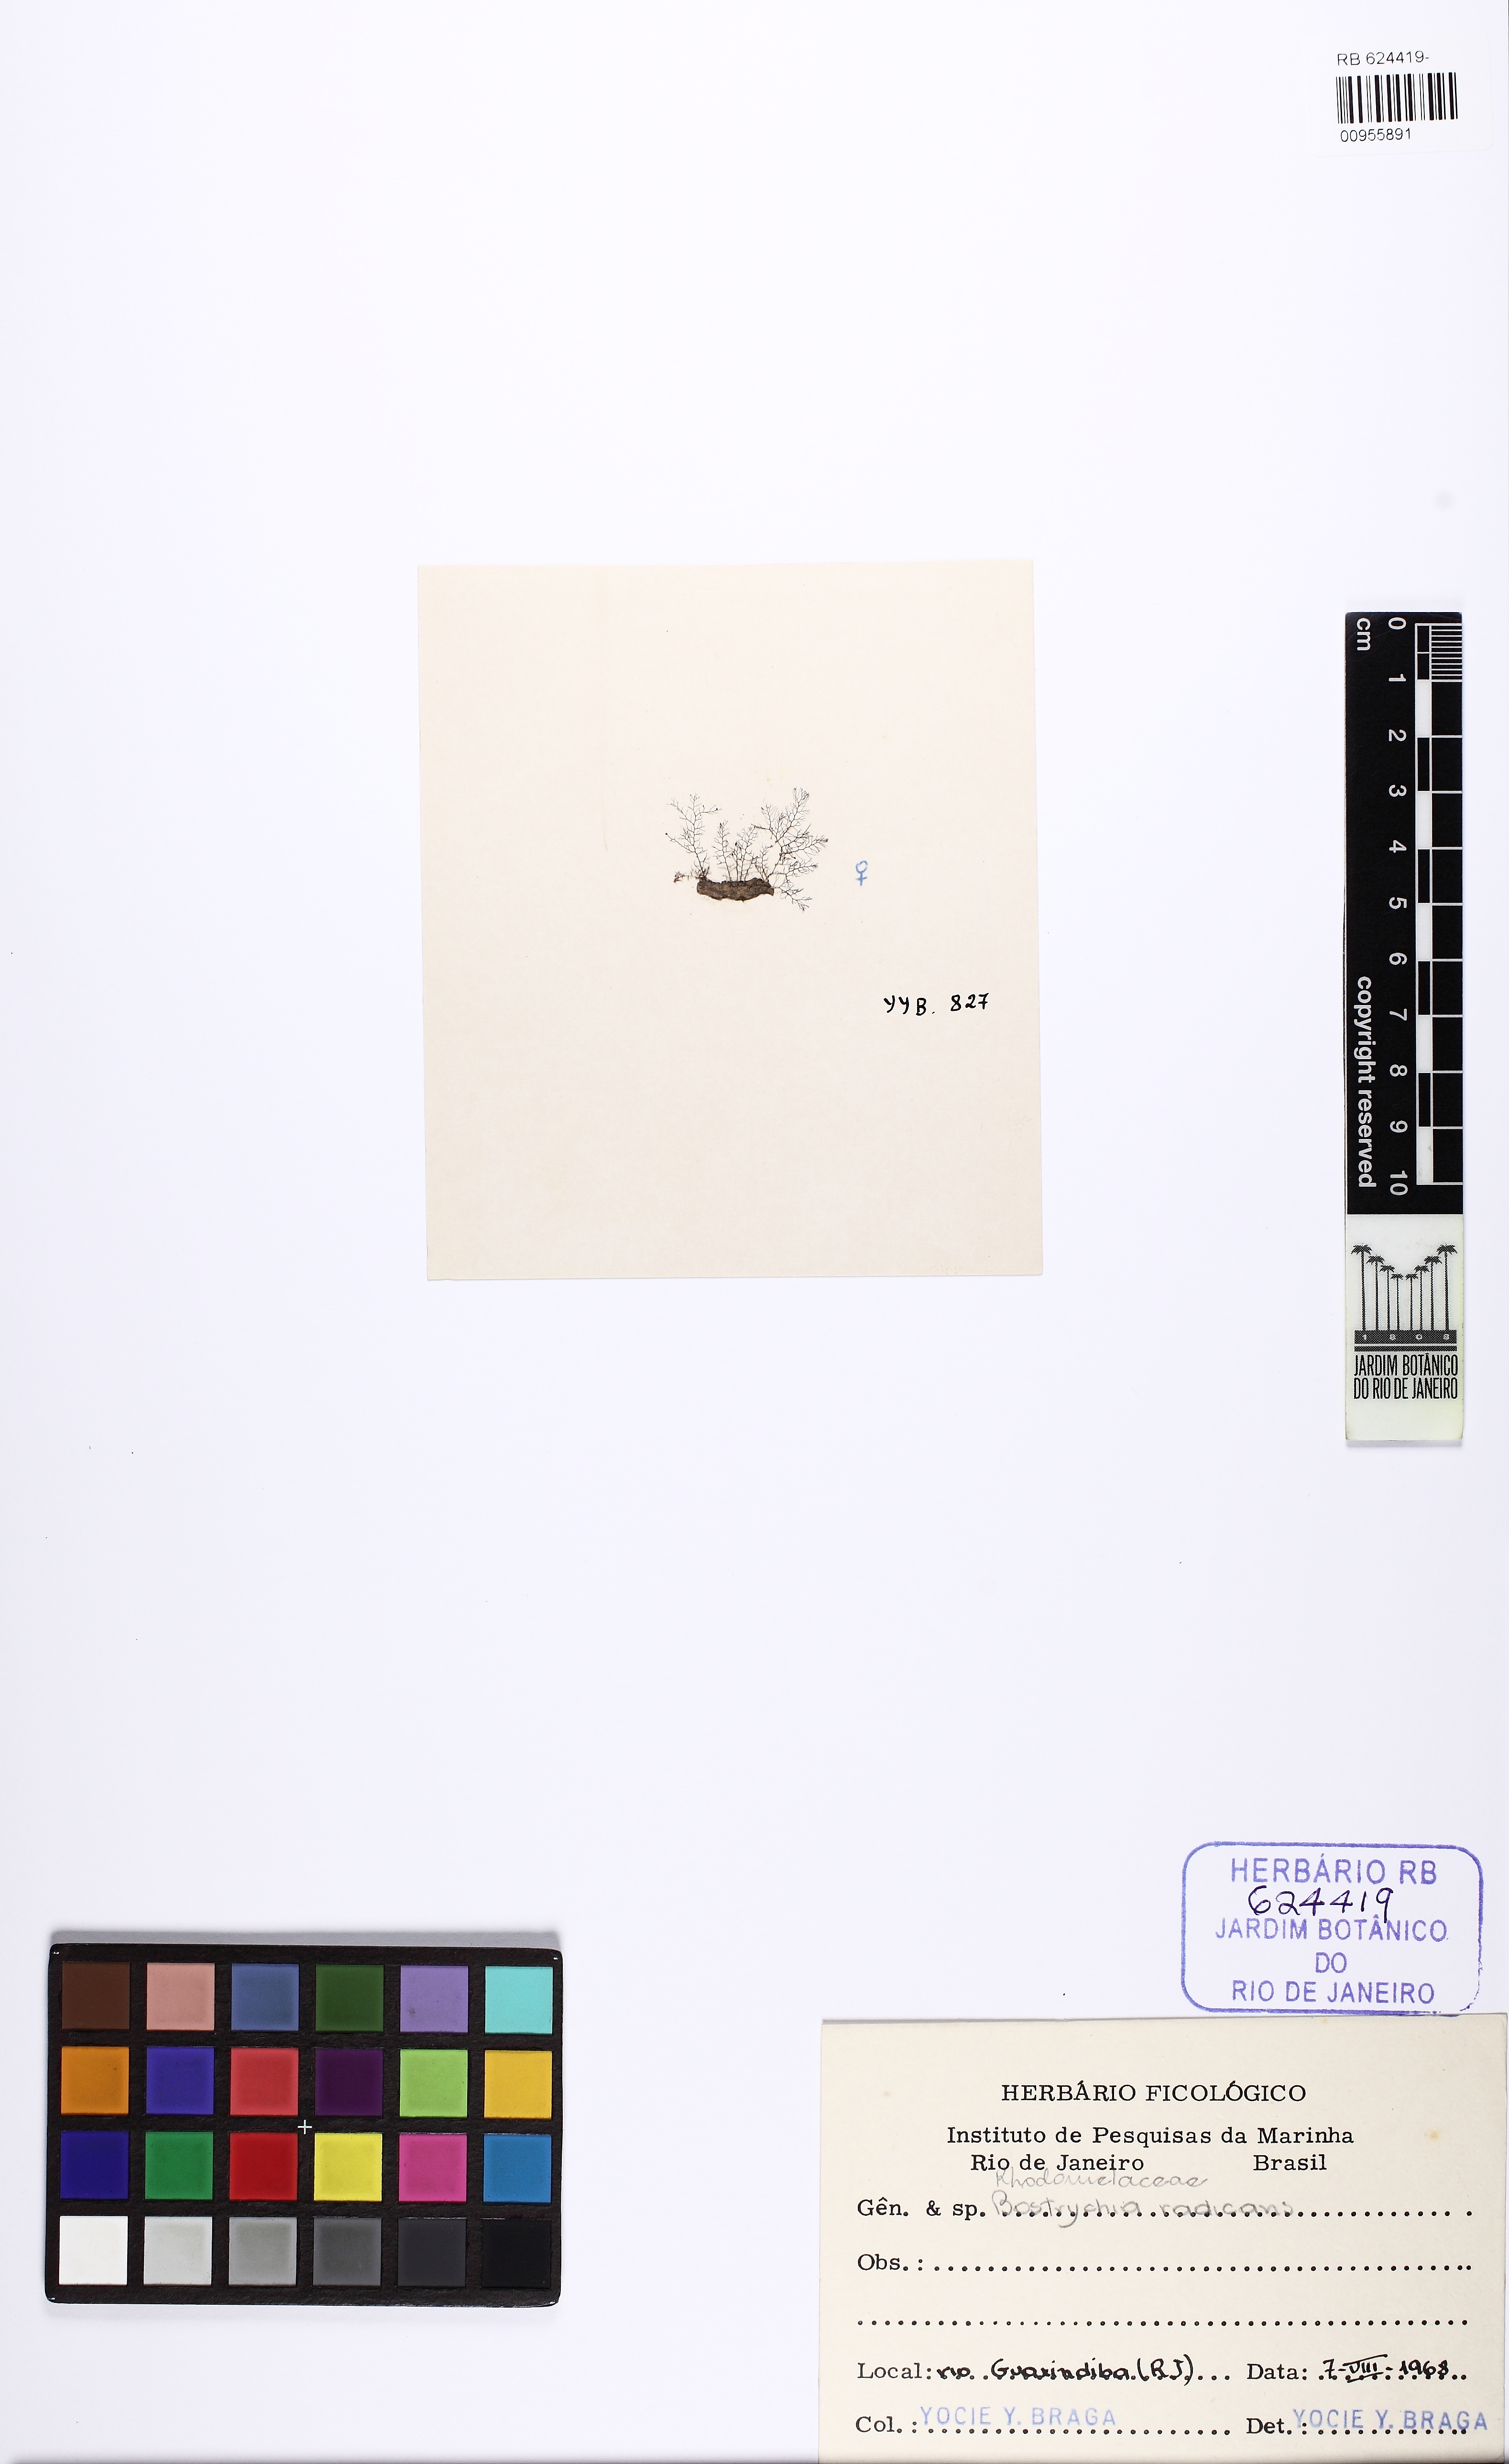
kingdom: Plantae
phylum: Rhodophyta
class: Florideophyceae
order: Ceramiales
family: Rhodomelaceae
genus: Bostrychia
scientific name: Bostrychia radicans
